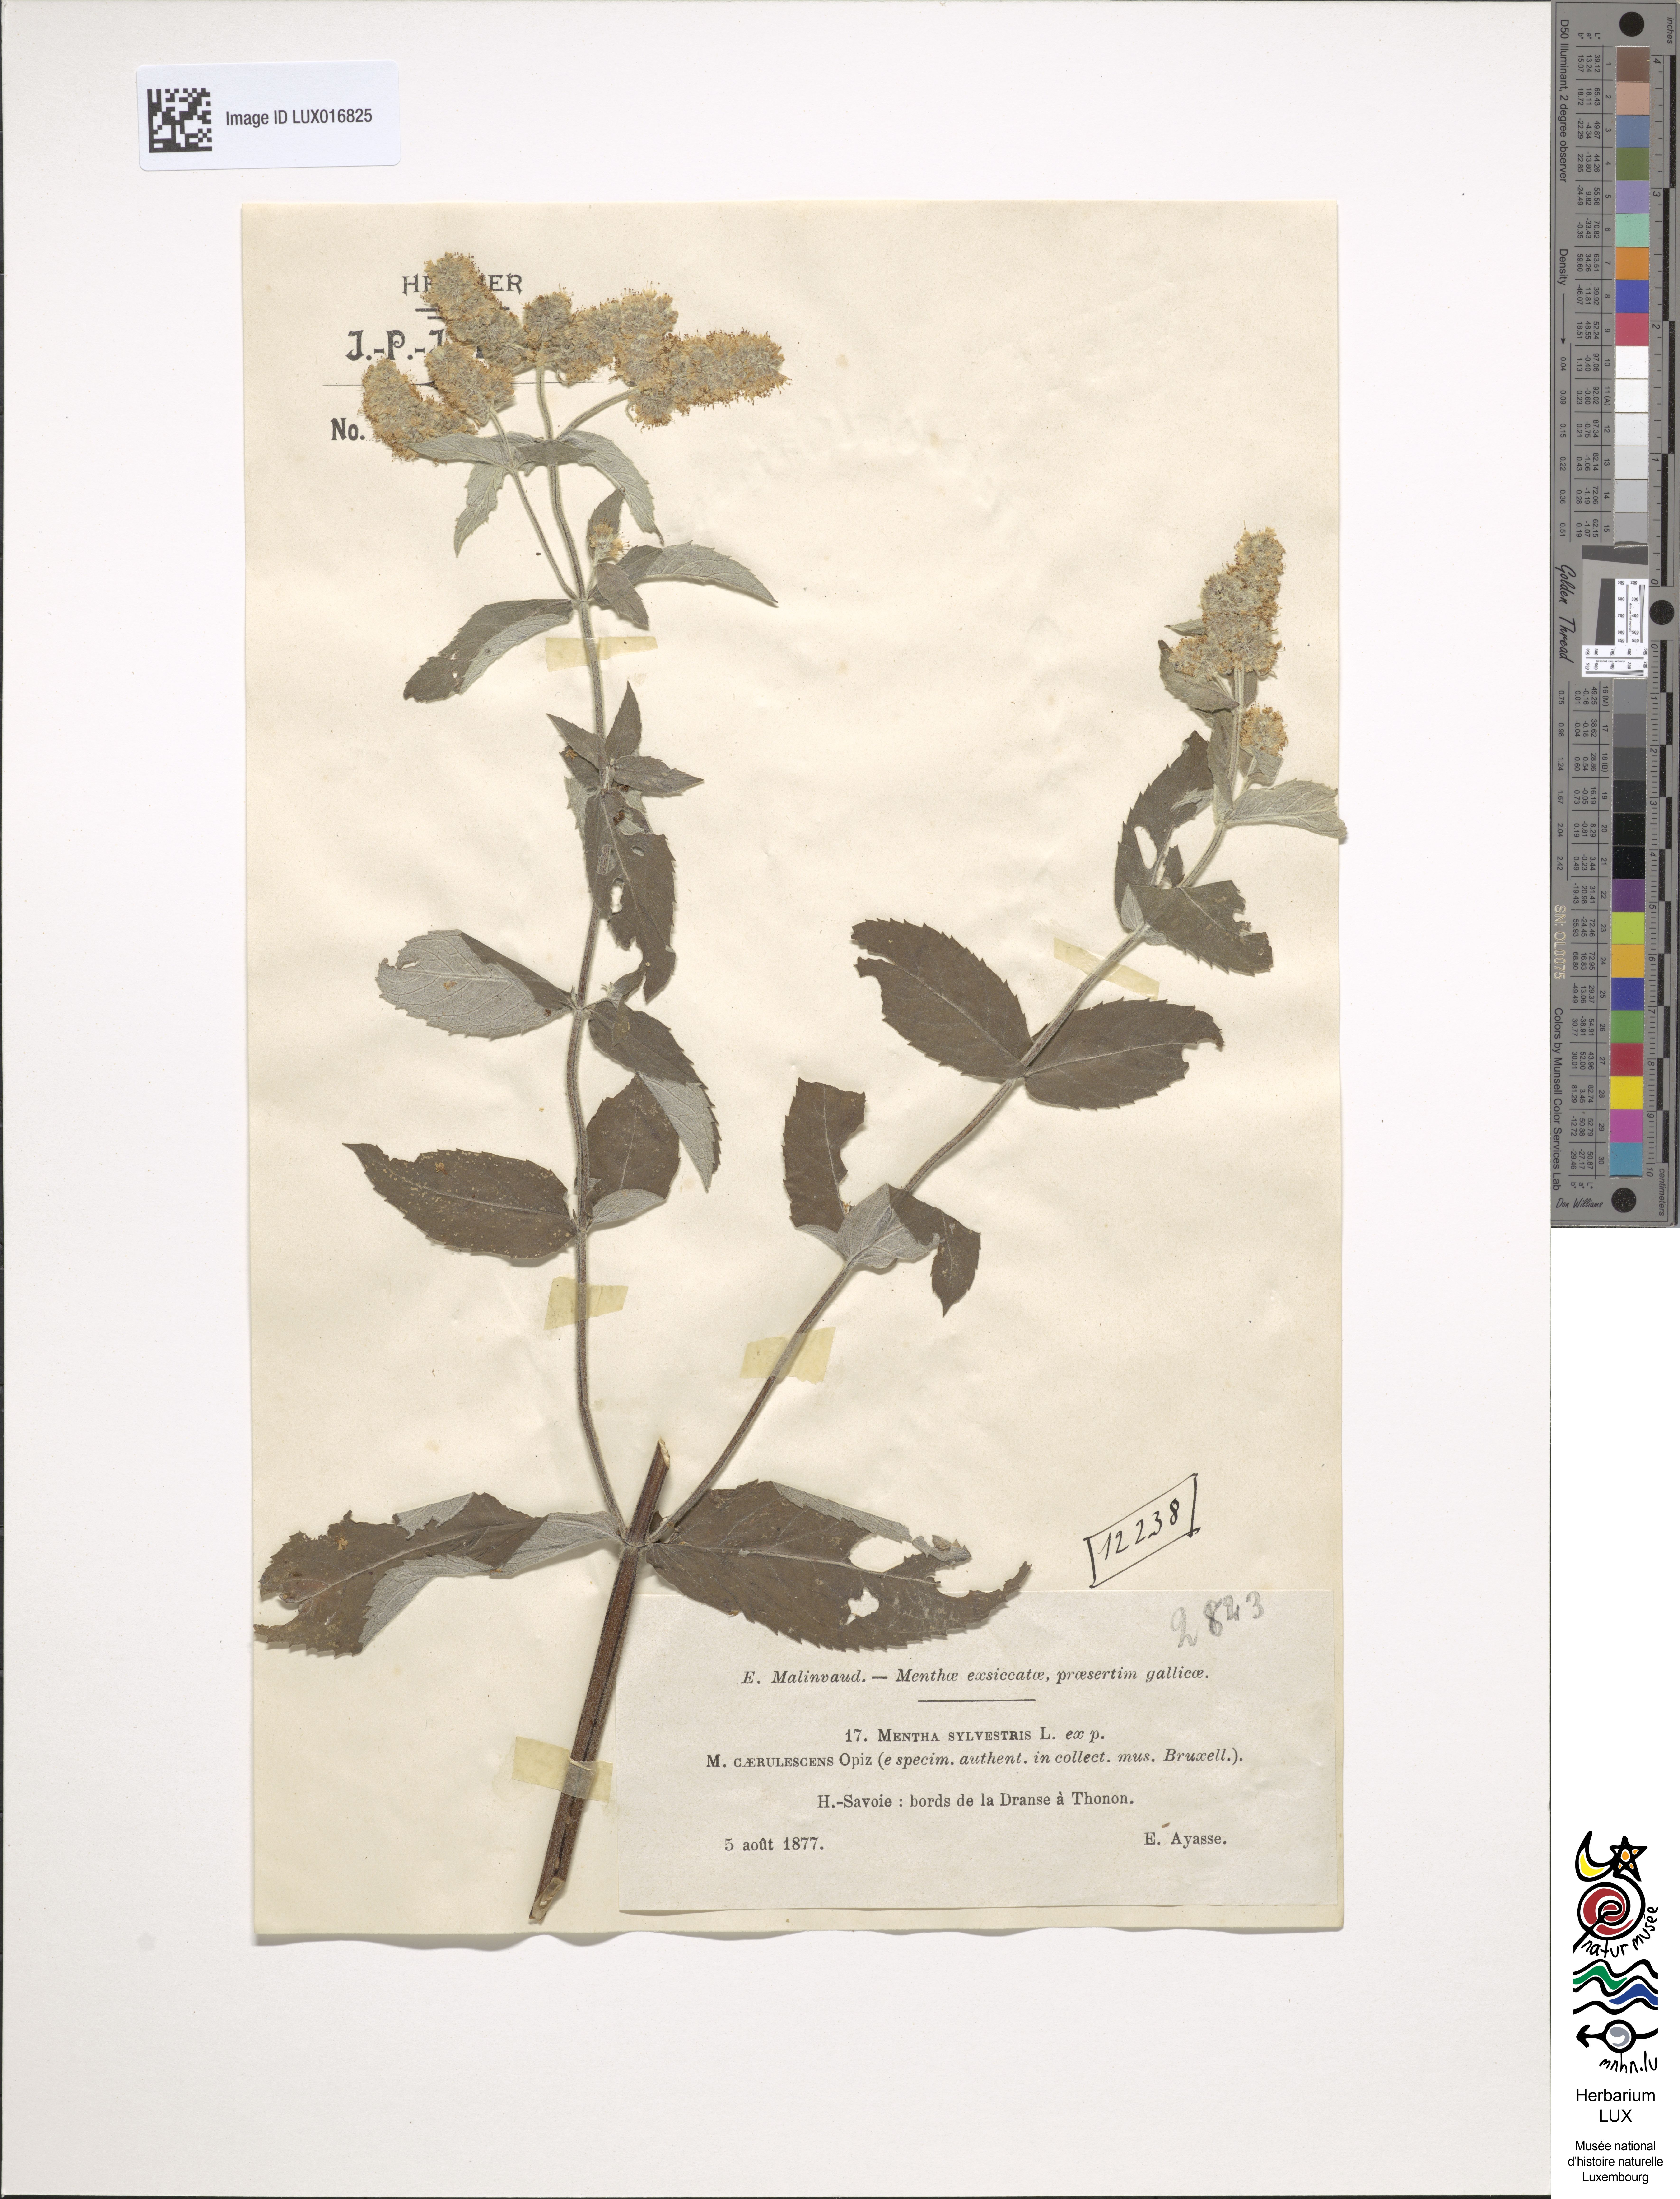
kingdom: Plantae
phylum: Tracheophyta
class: Magnoliopsida
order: Lamiales
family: Lamiaceae
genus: Mentha
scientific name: Mentha longifolia
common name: Horse mint
